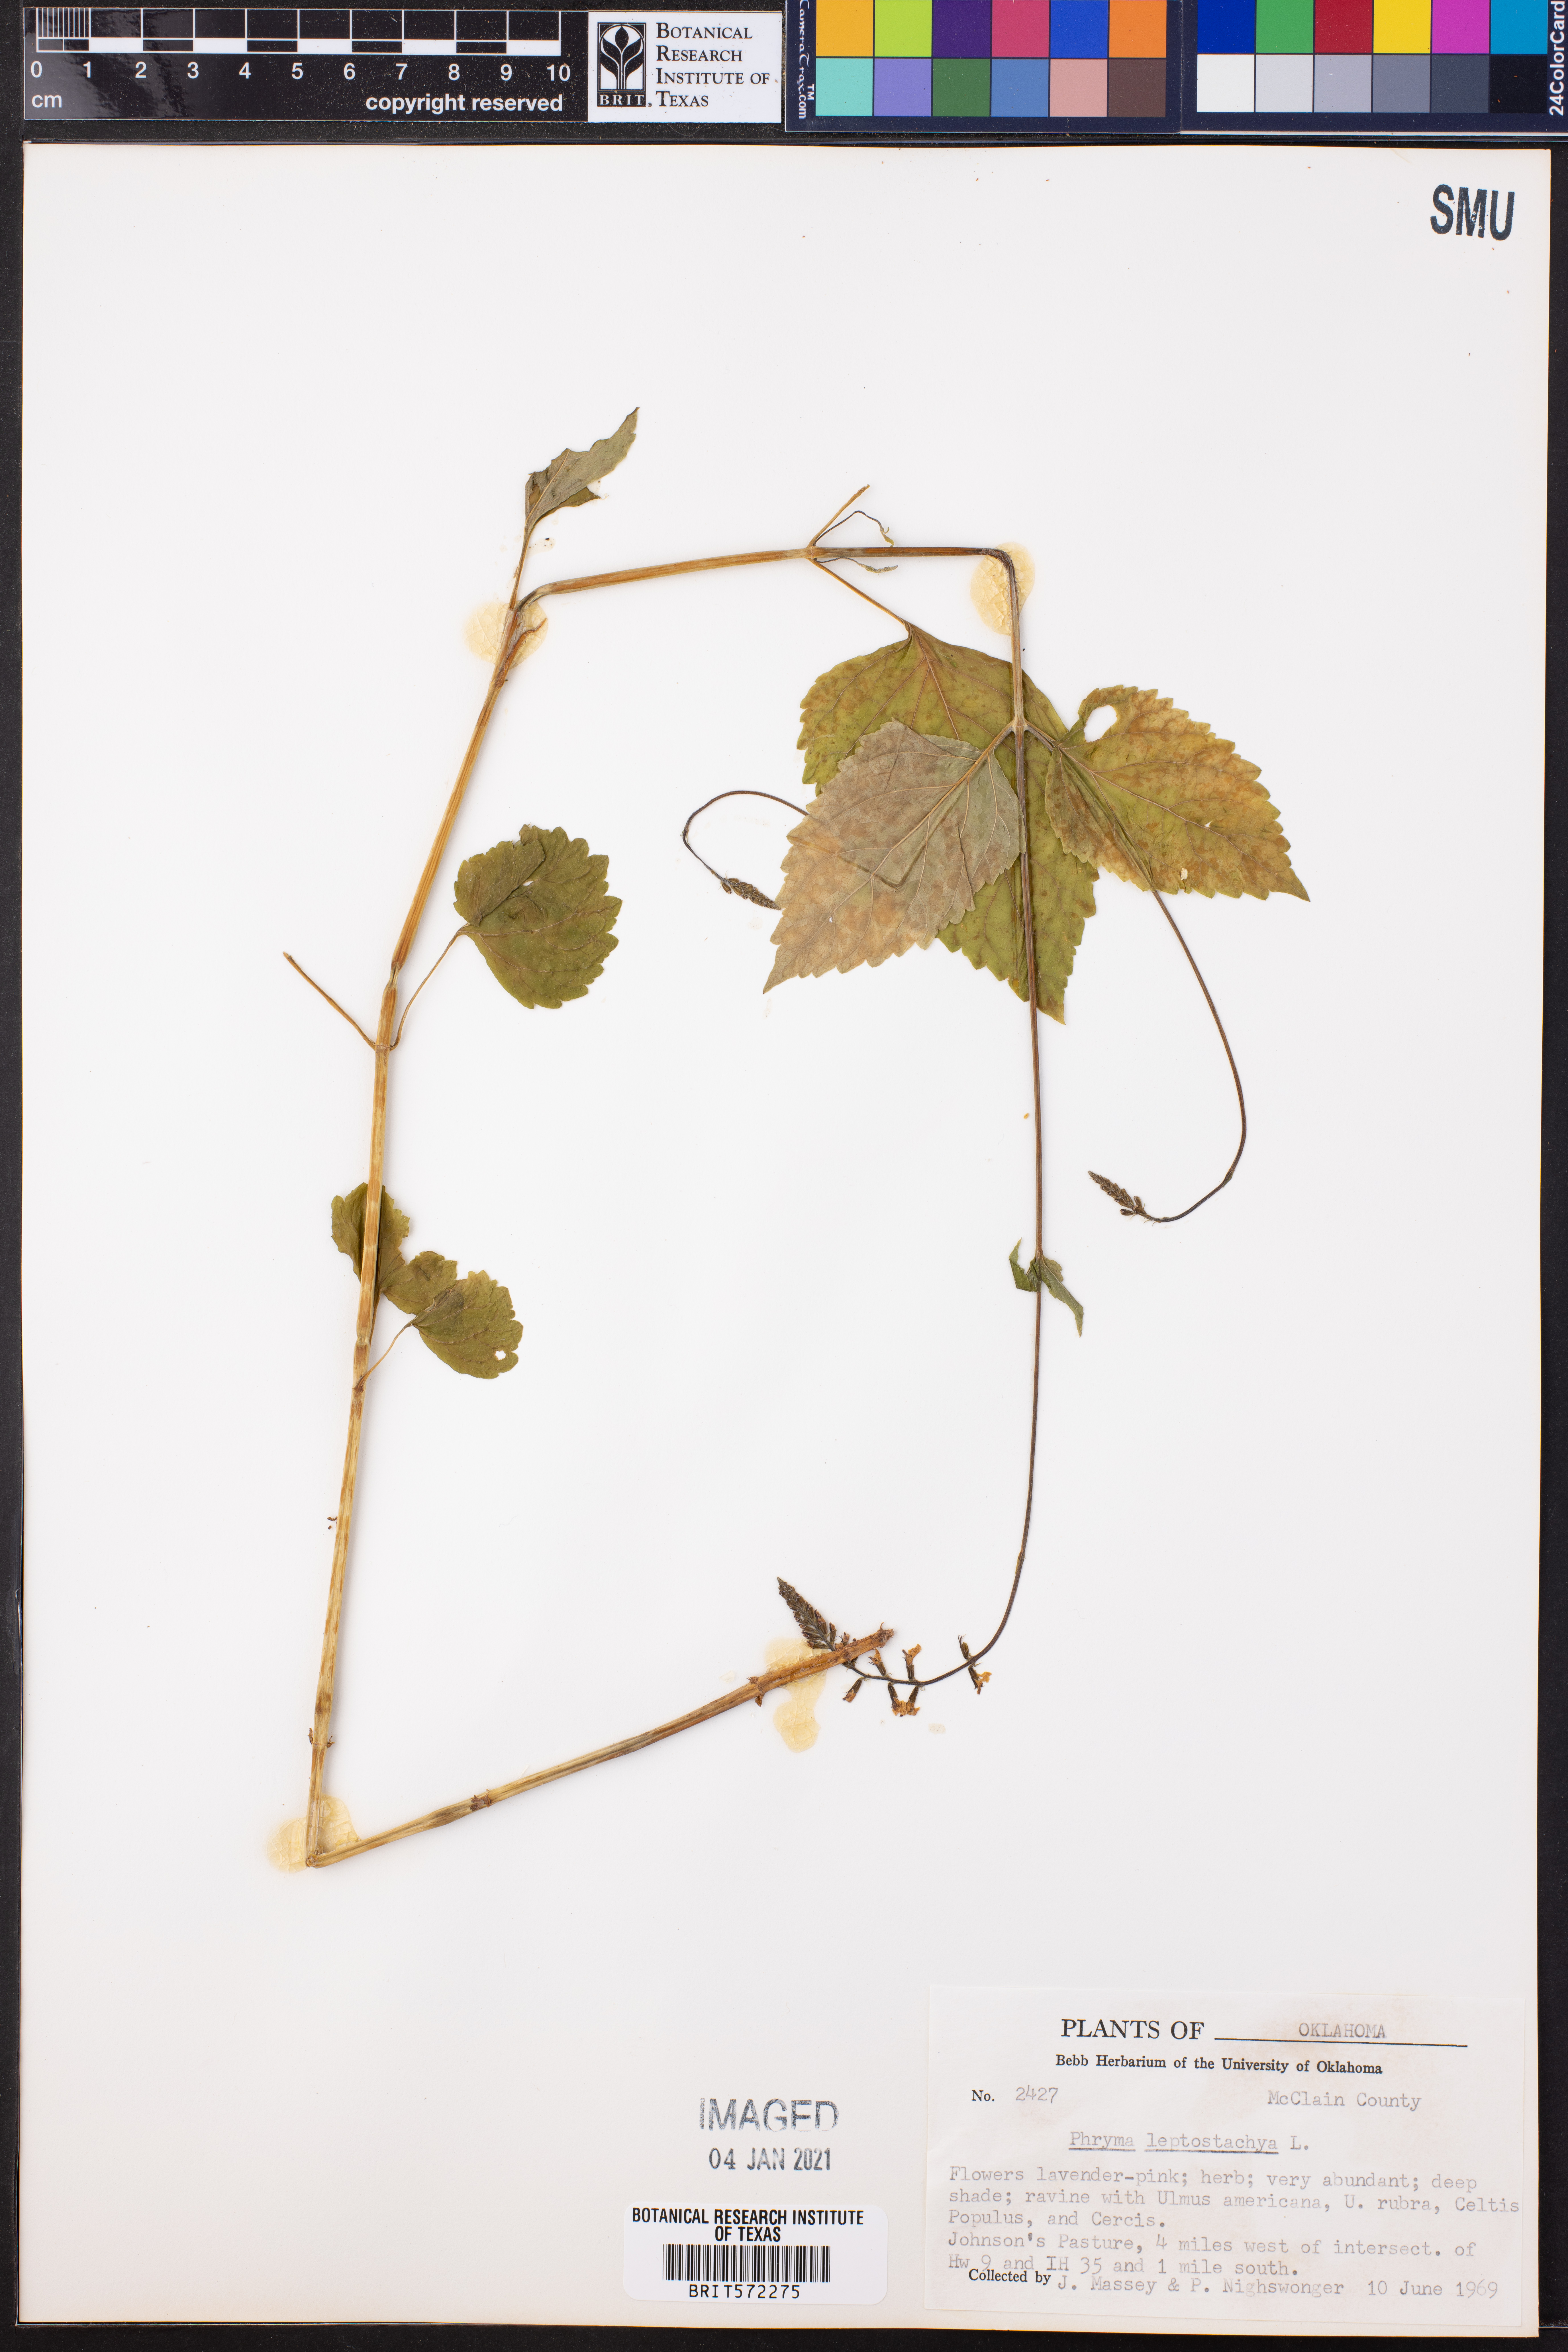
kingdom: Plantae
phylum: Tracheophyta
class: Magnoliopsida
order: Lamiales
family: Phrymaceae
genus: Phryma
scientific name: Phryma leptostachya
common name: American lopseed
